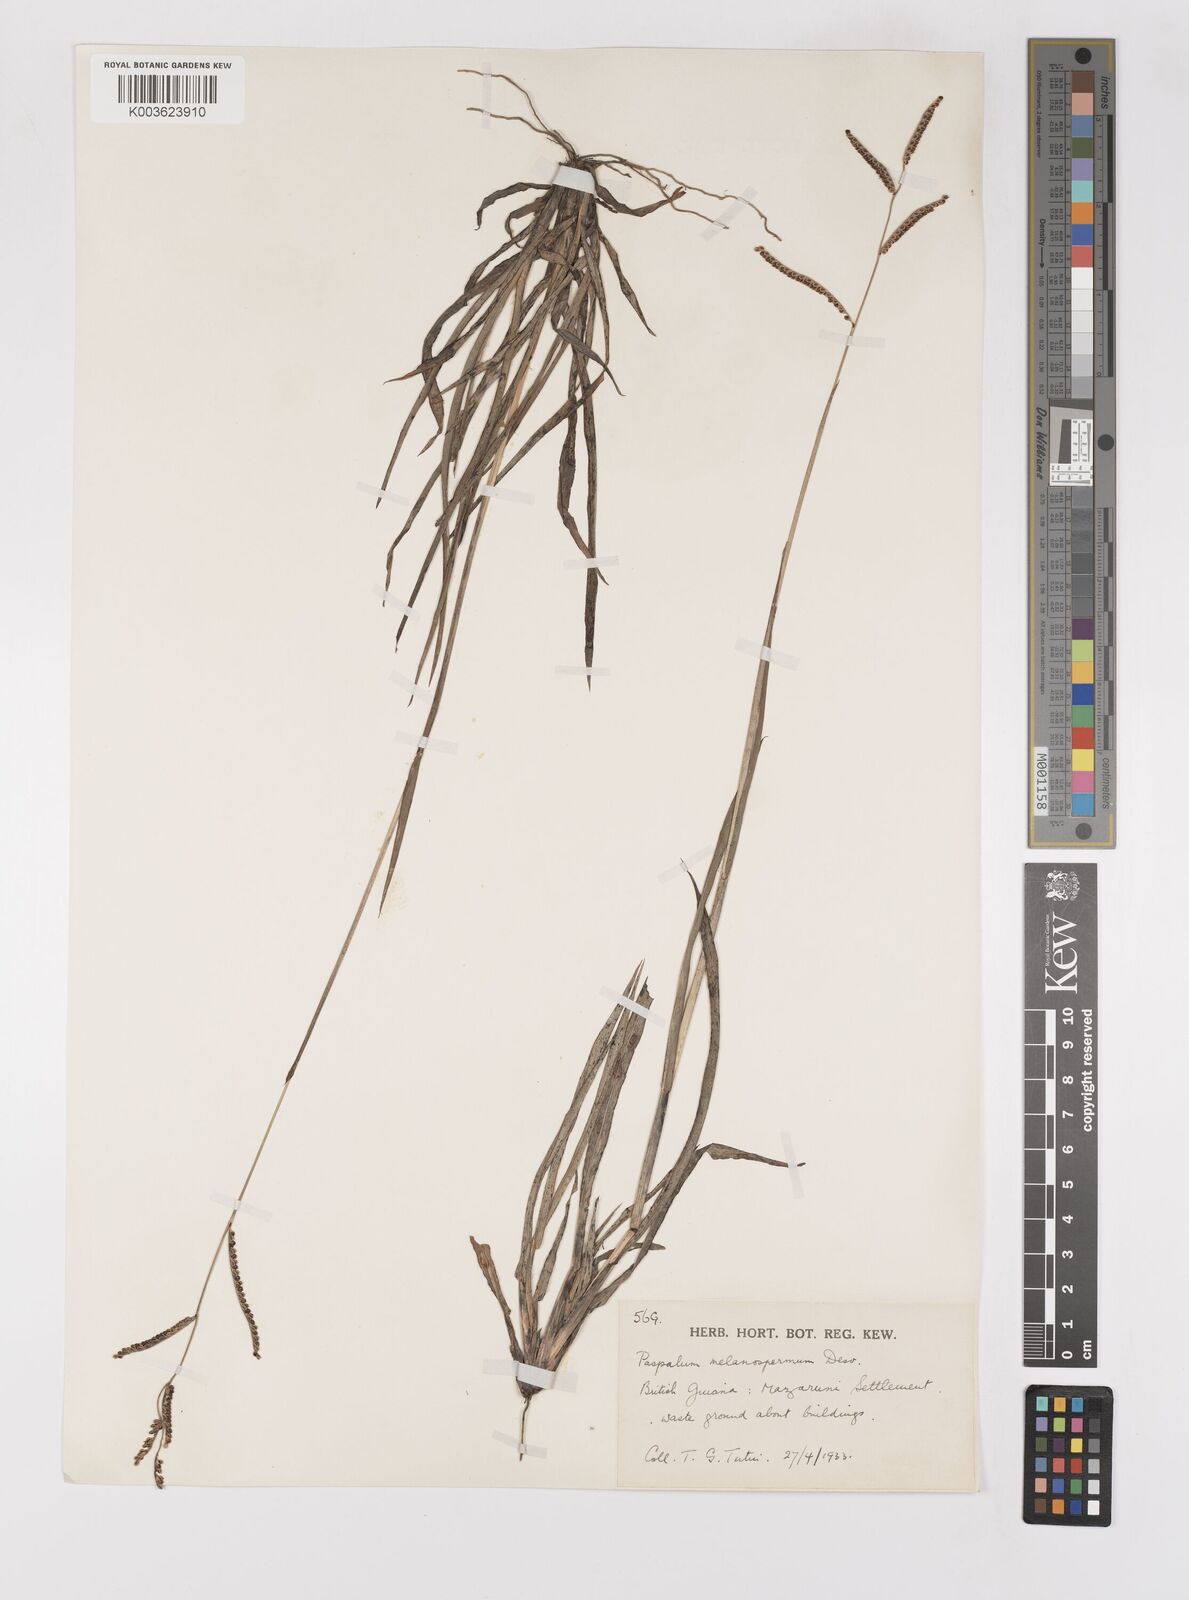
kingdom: Plantae
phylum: Tracheophyta
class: Liliopsida
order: Poales
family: Poaceae
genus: Paspalum
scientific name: Paspalum melanospermum
